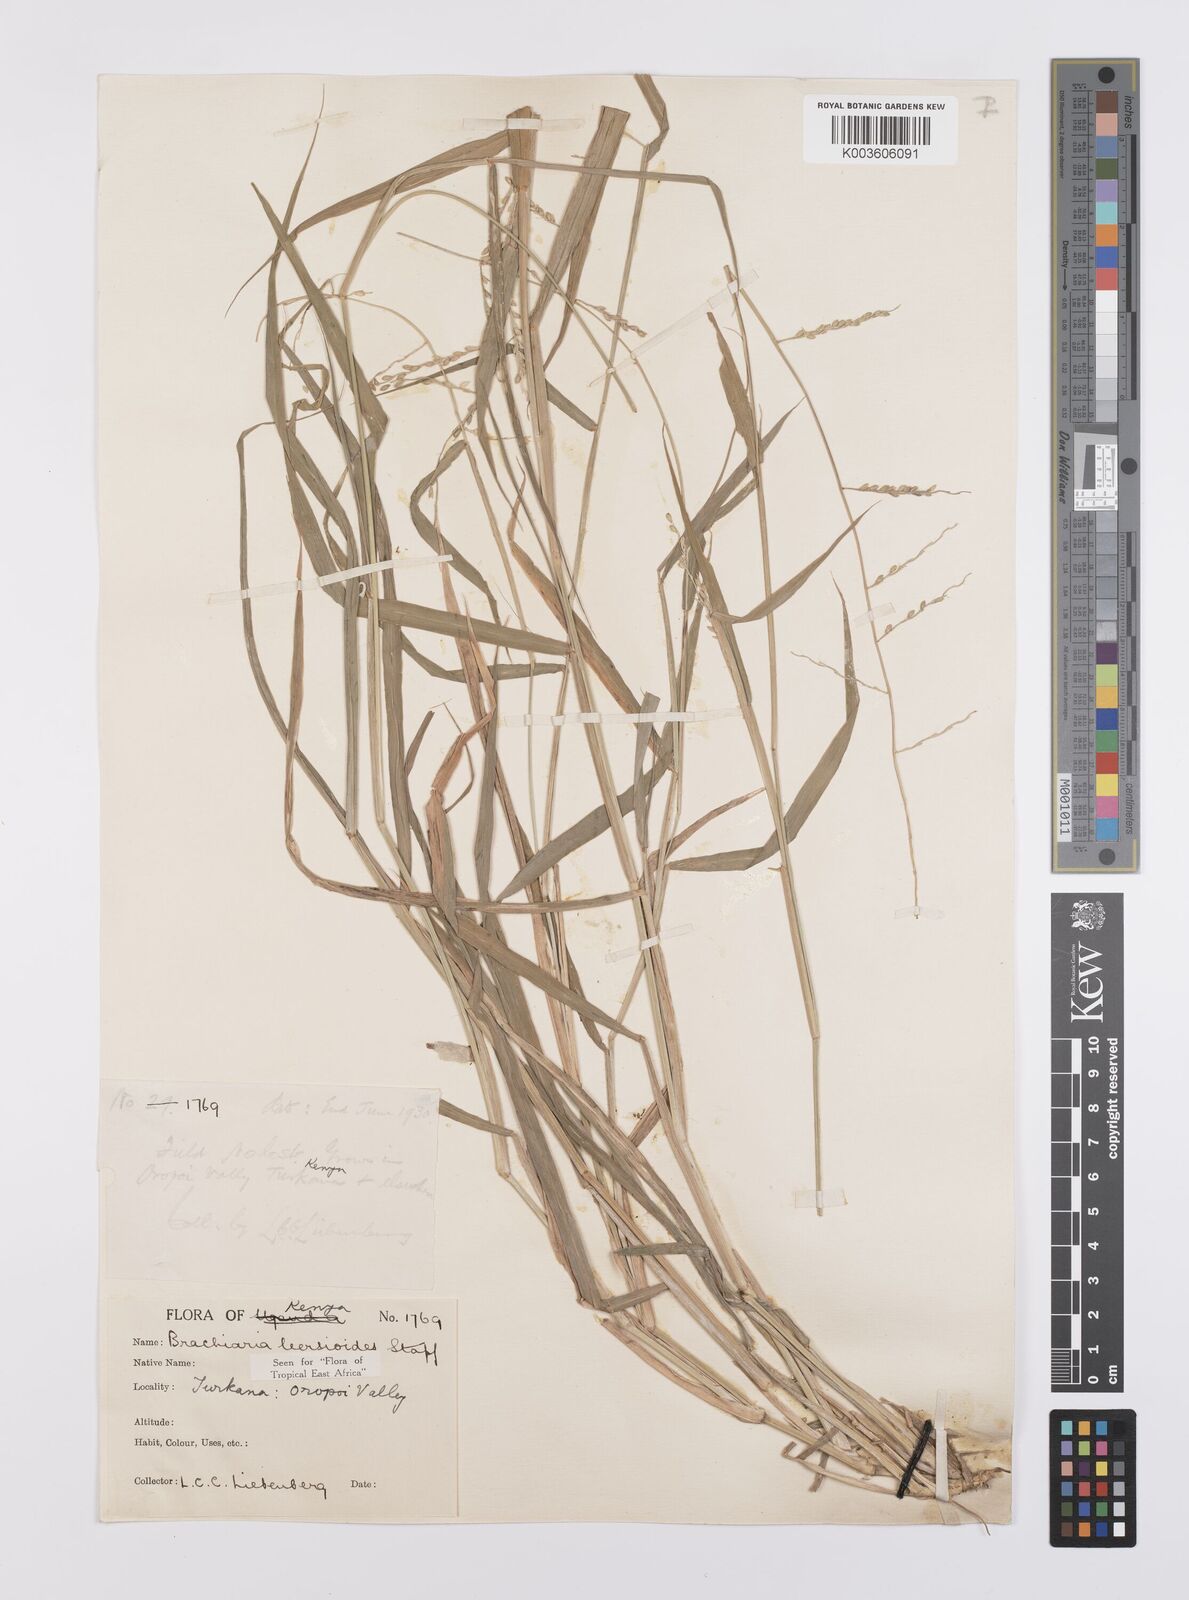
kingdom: Plantae
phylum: Tracheophyta
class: Liliopsida
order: Poales
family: Poaceae
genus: Urochloa
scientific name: Urochloa leersioides
